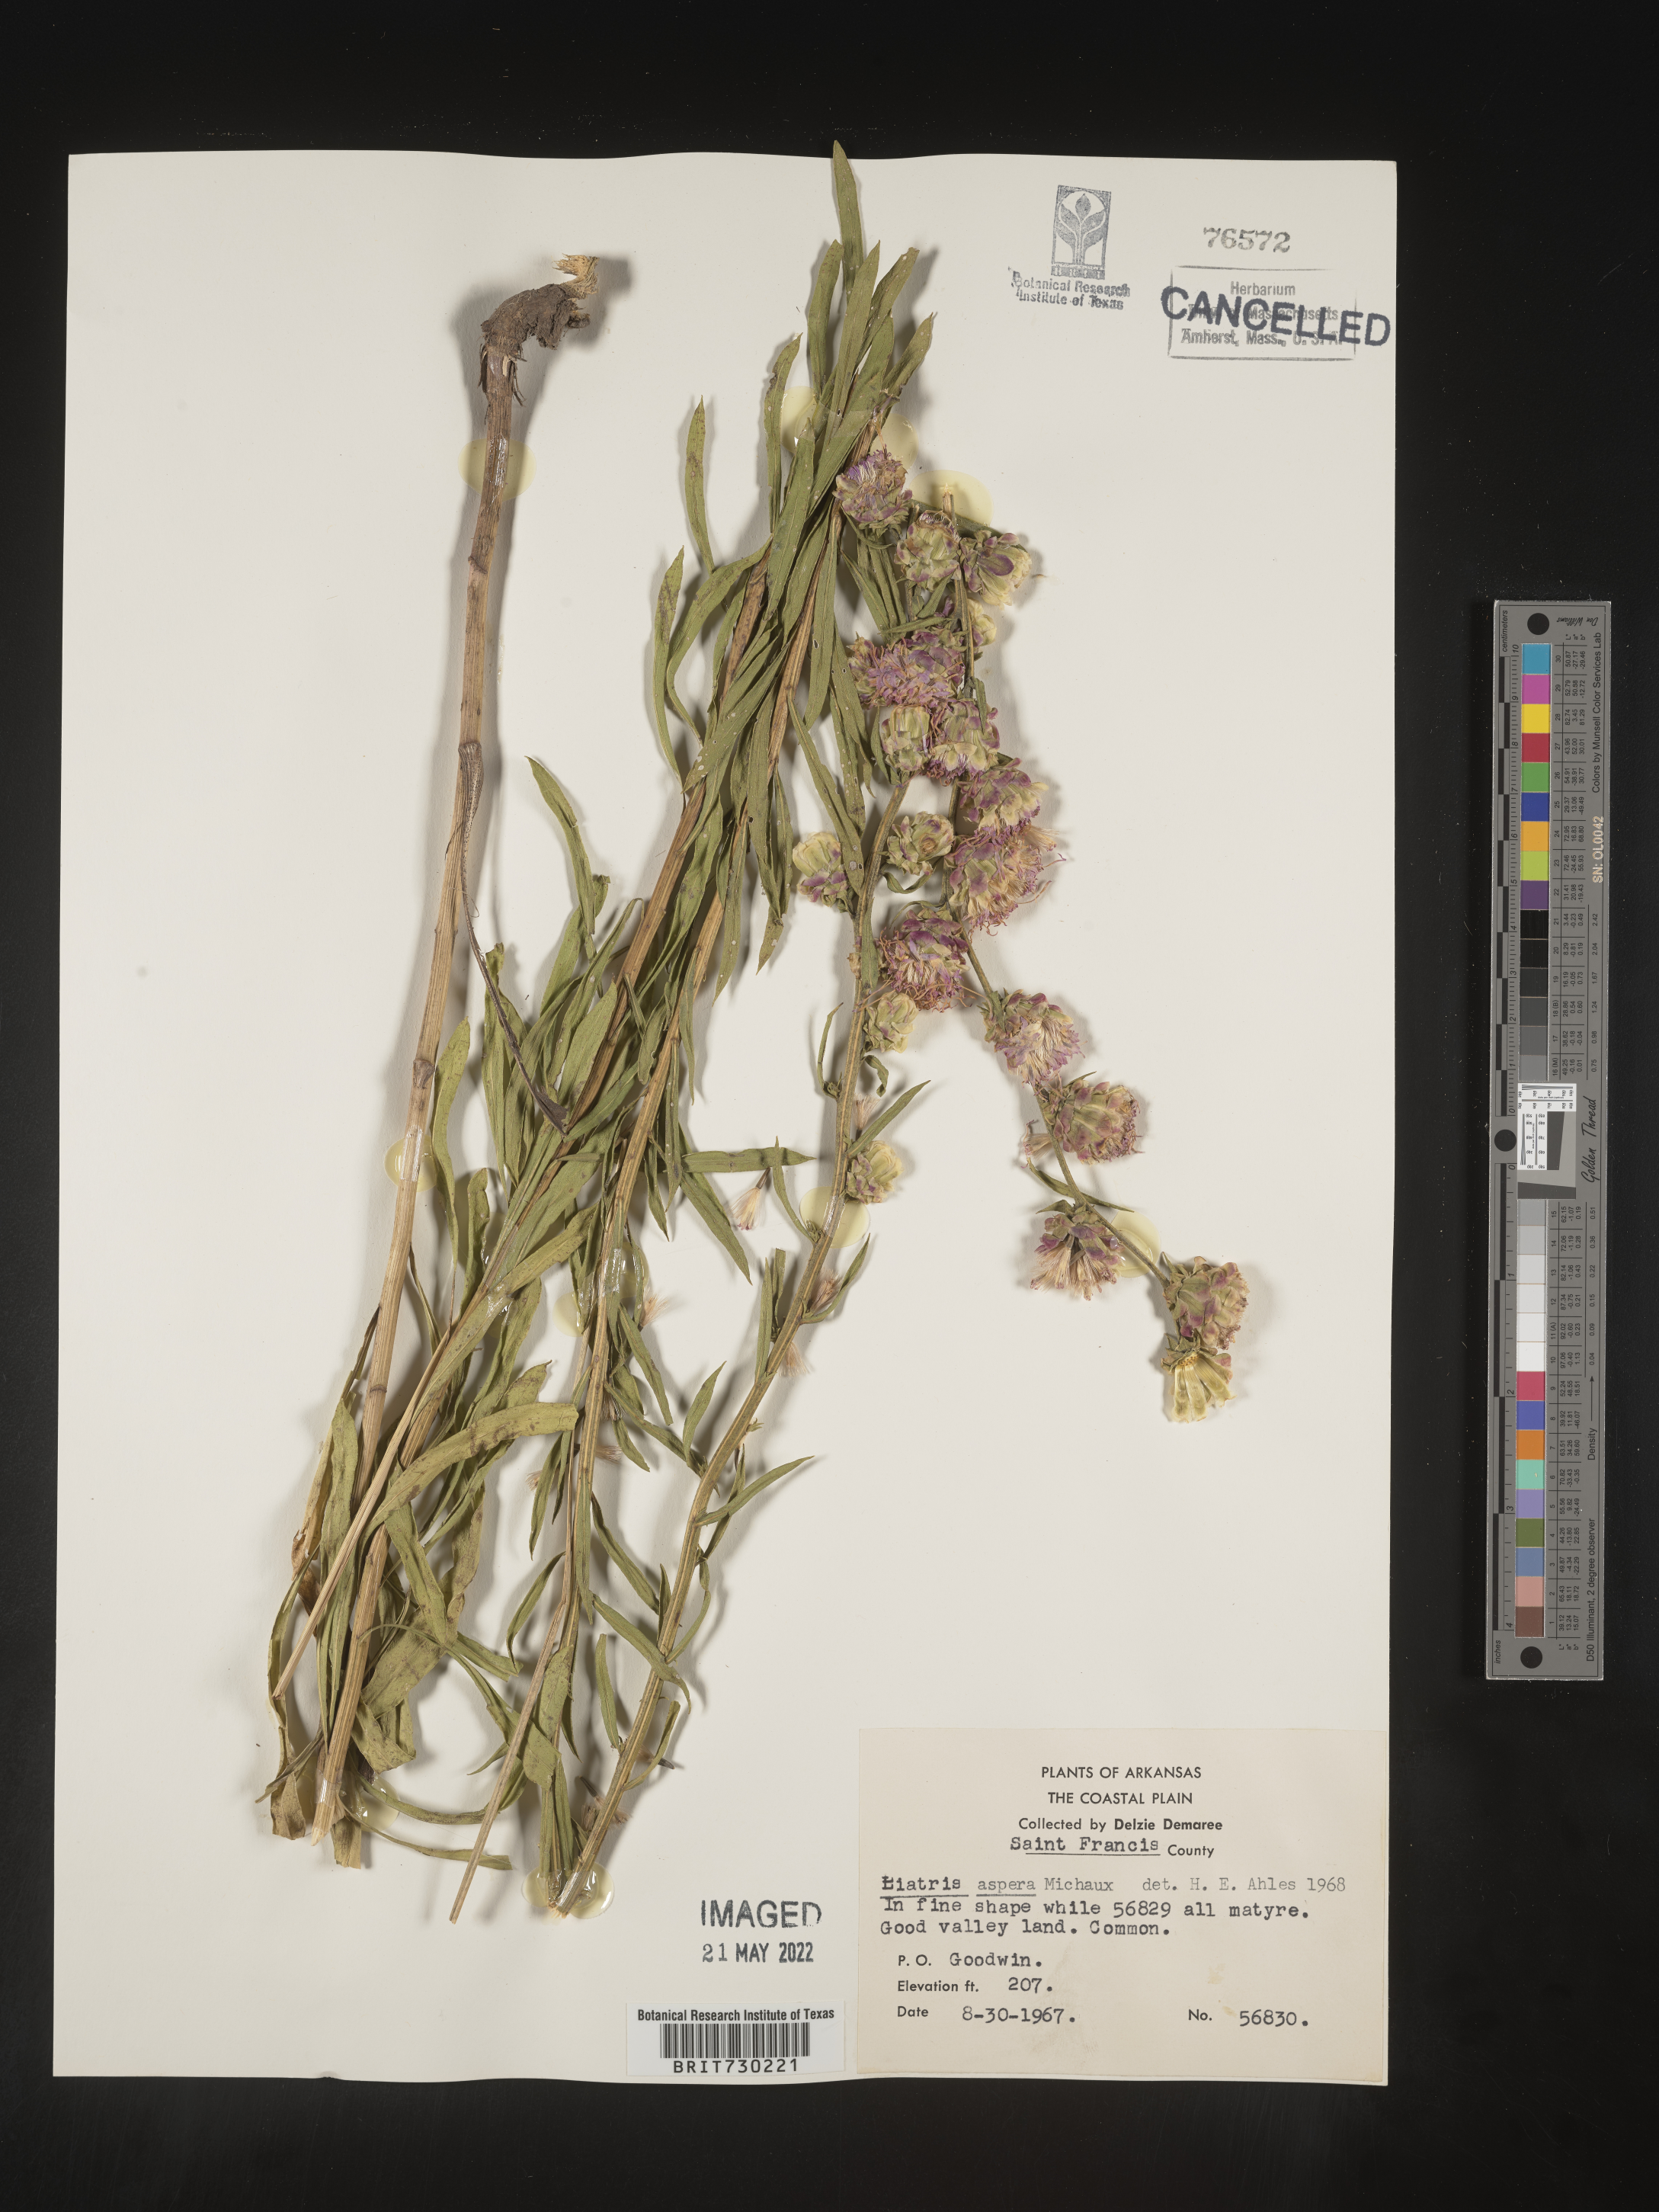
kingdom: Plantae
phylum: Tracheophyta
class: Magnoliopsida
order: Asterales
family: Asteraceae
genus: Liatris
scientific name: Liatris aspera
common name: Lacerate blazing-star
